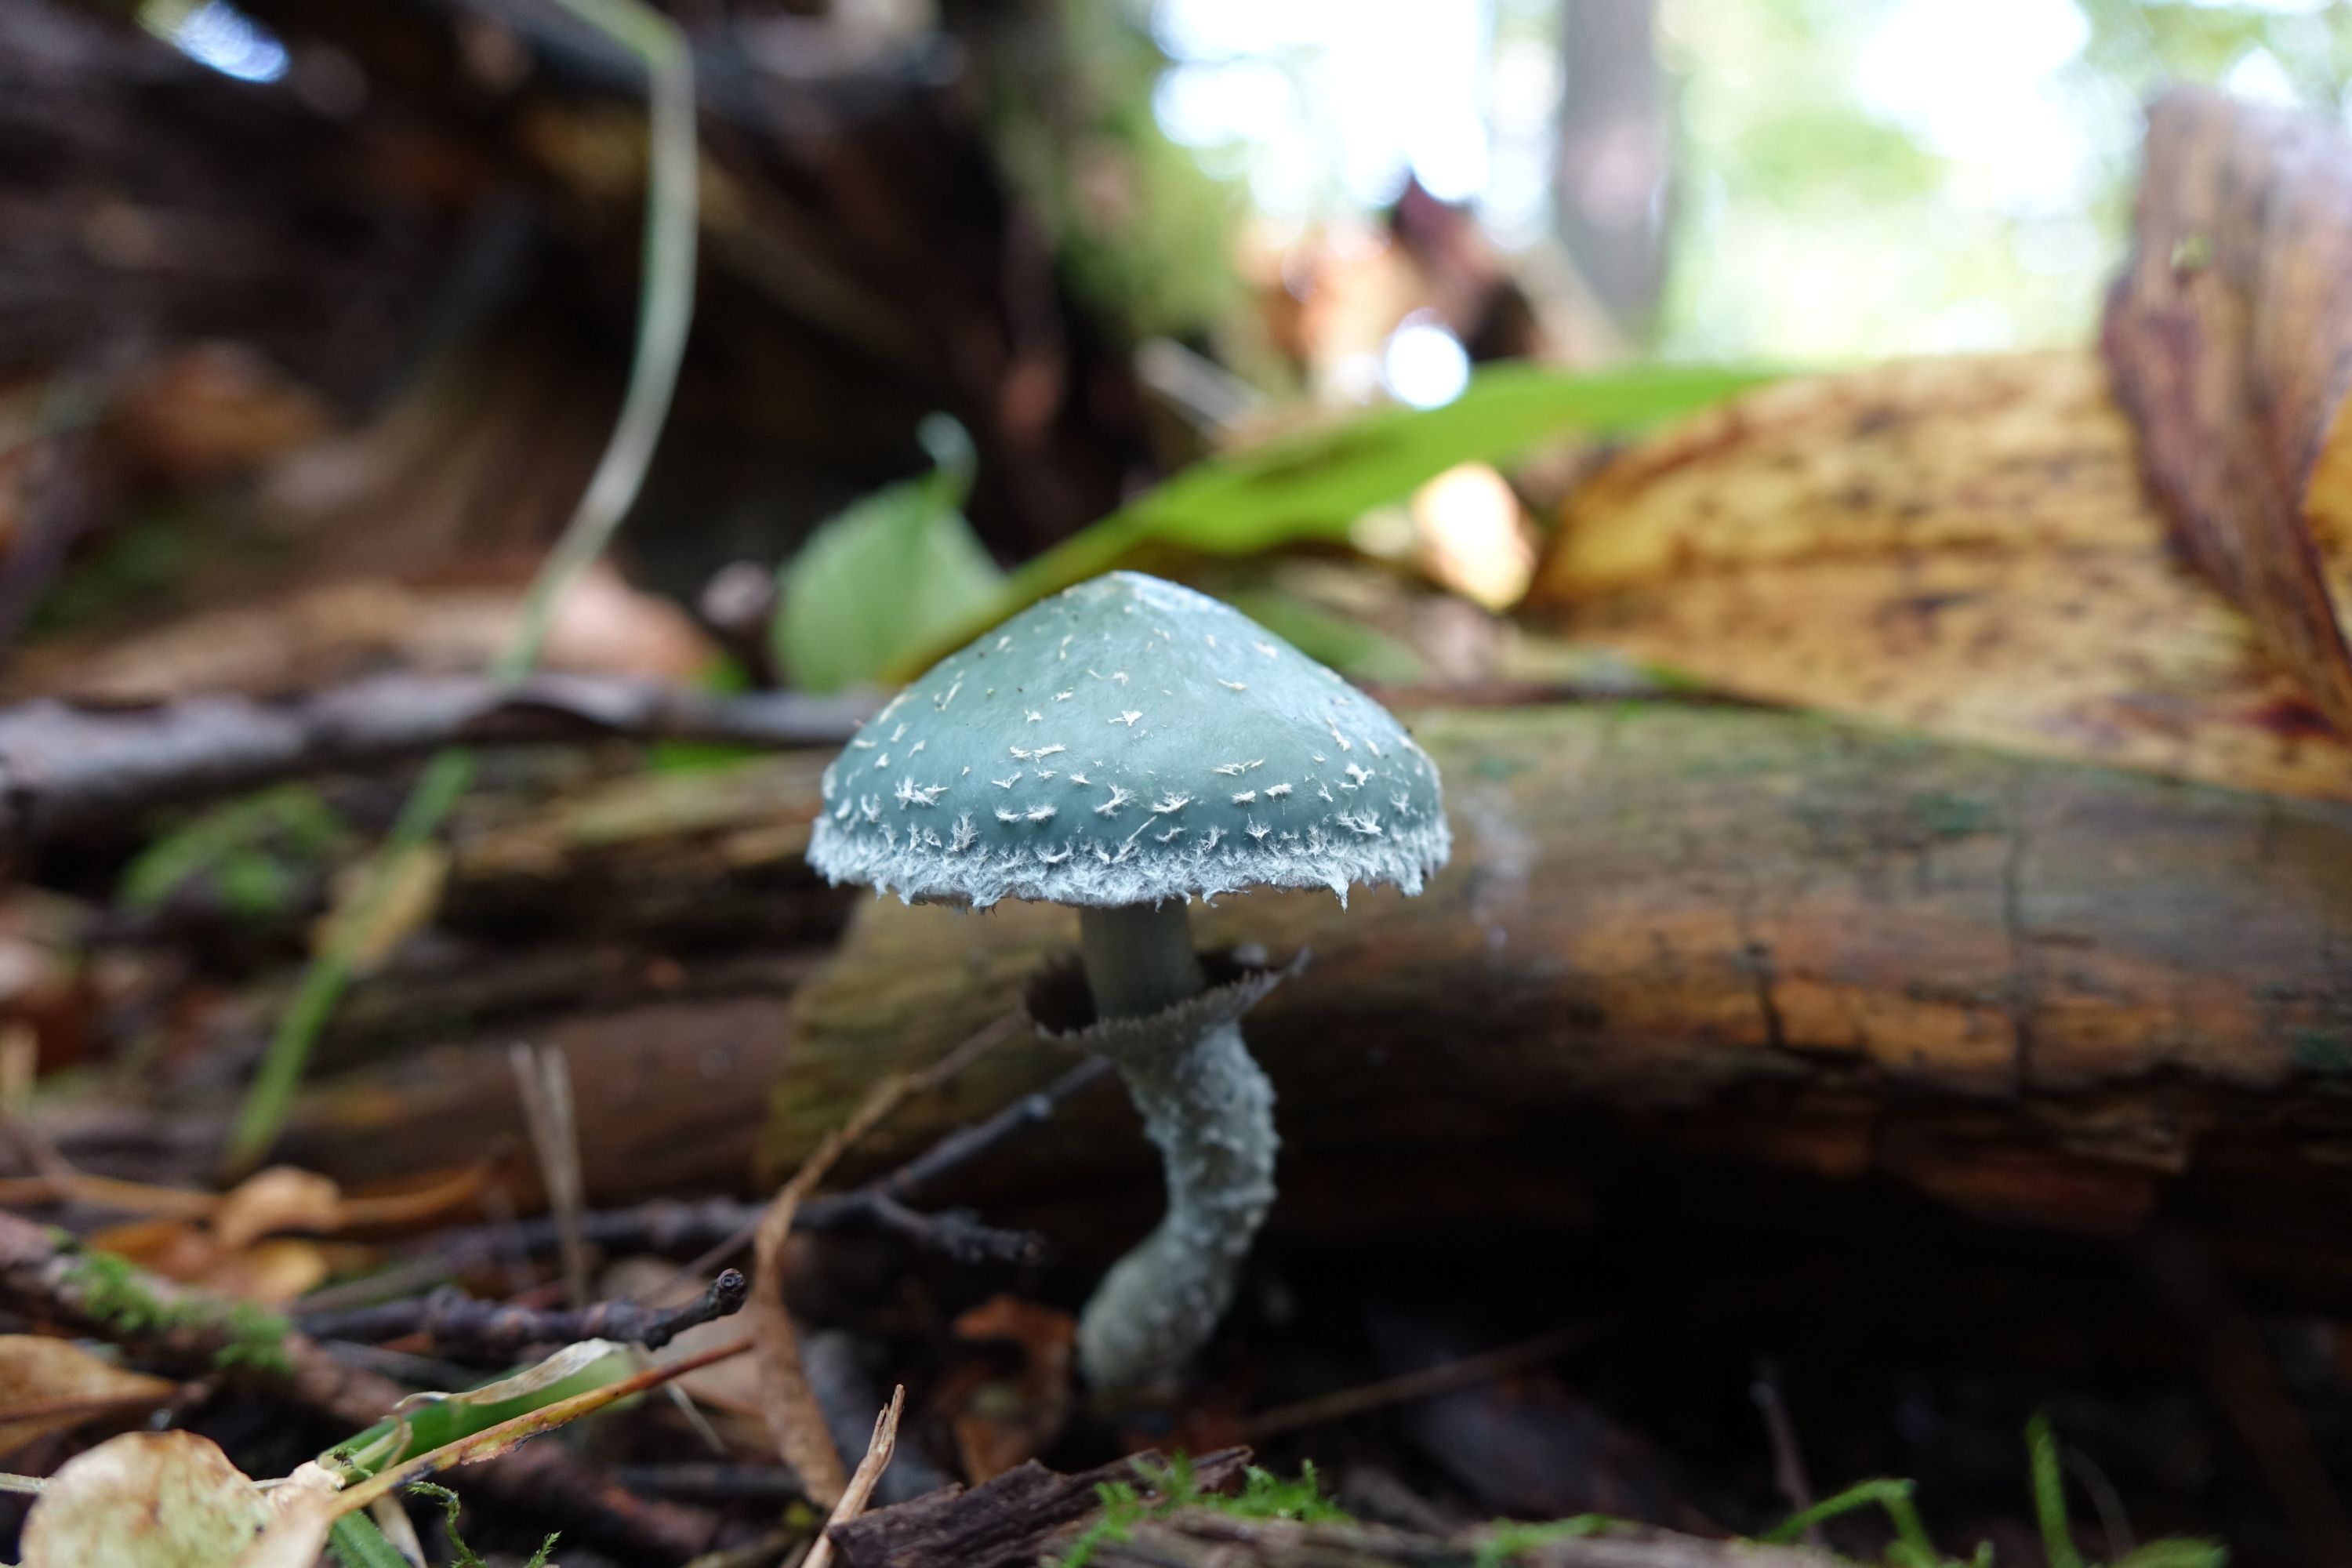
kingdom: Fungi
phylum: Basidiomycota
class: Agaricomycetes
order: Agaricales
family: Strophariaceae
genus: Stropharia
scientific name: Stropharia aeruginosa
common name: Verdigris roundhead
